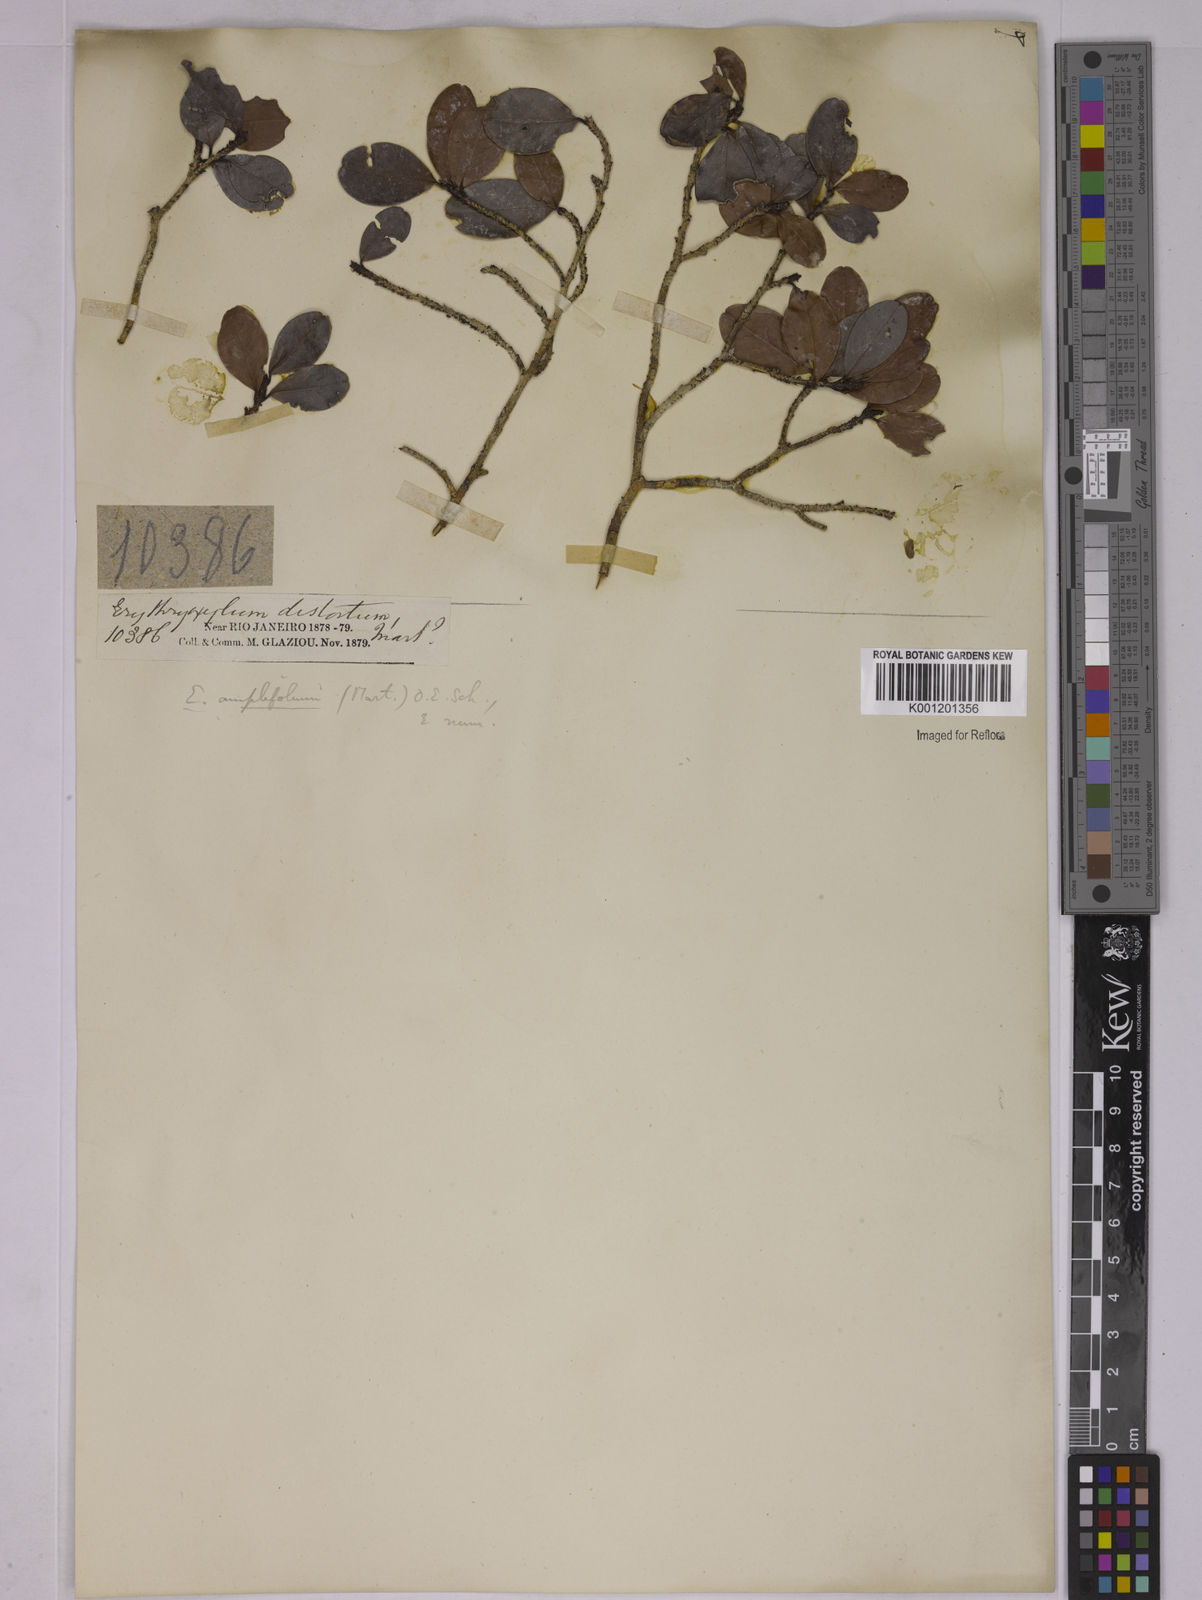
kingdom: Plantae
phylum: Tracheophyta
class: Magnoliopsida
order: Malpighiales
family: Erythroxylaceae
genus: Erythroxylum
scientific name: Erythroxylum
